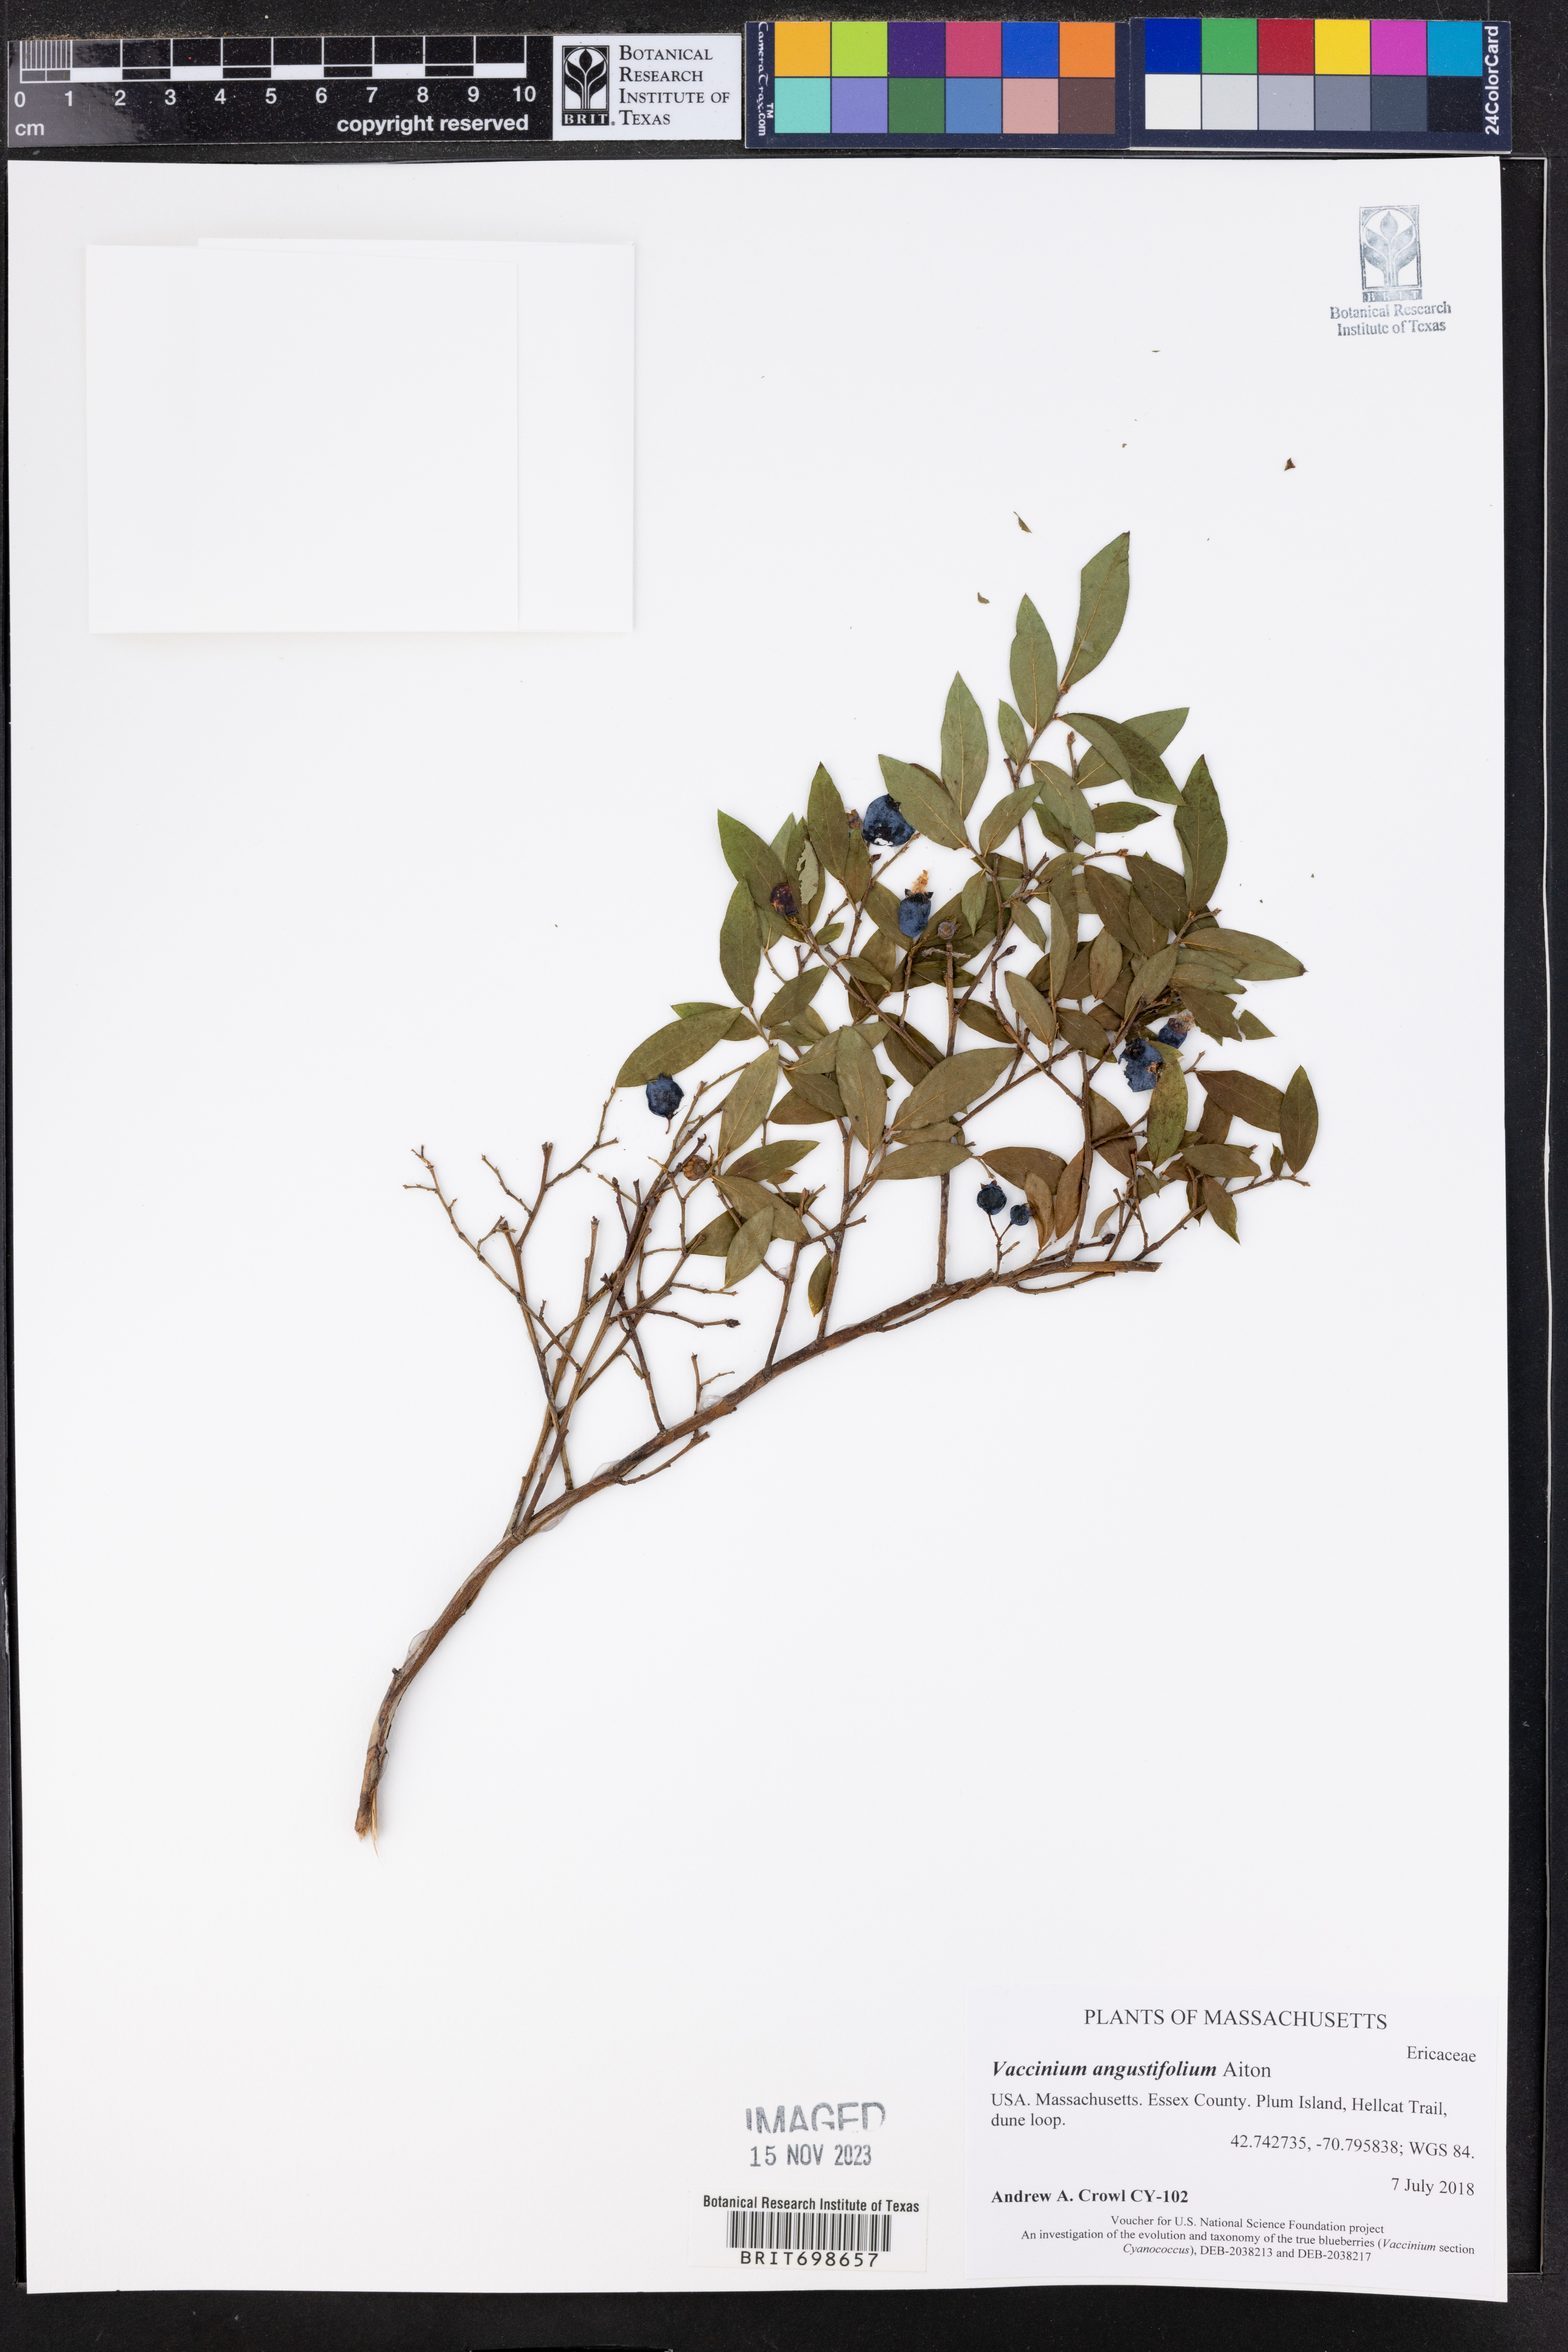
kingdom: Plantae
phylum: Tracheophyta
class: Magnoliopsida
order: Ericales
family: Ericaceae
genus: Vaccinium
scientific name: Vaccinium angustifolium
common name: Early lowbush blueberry
